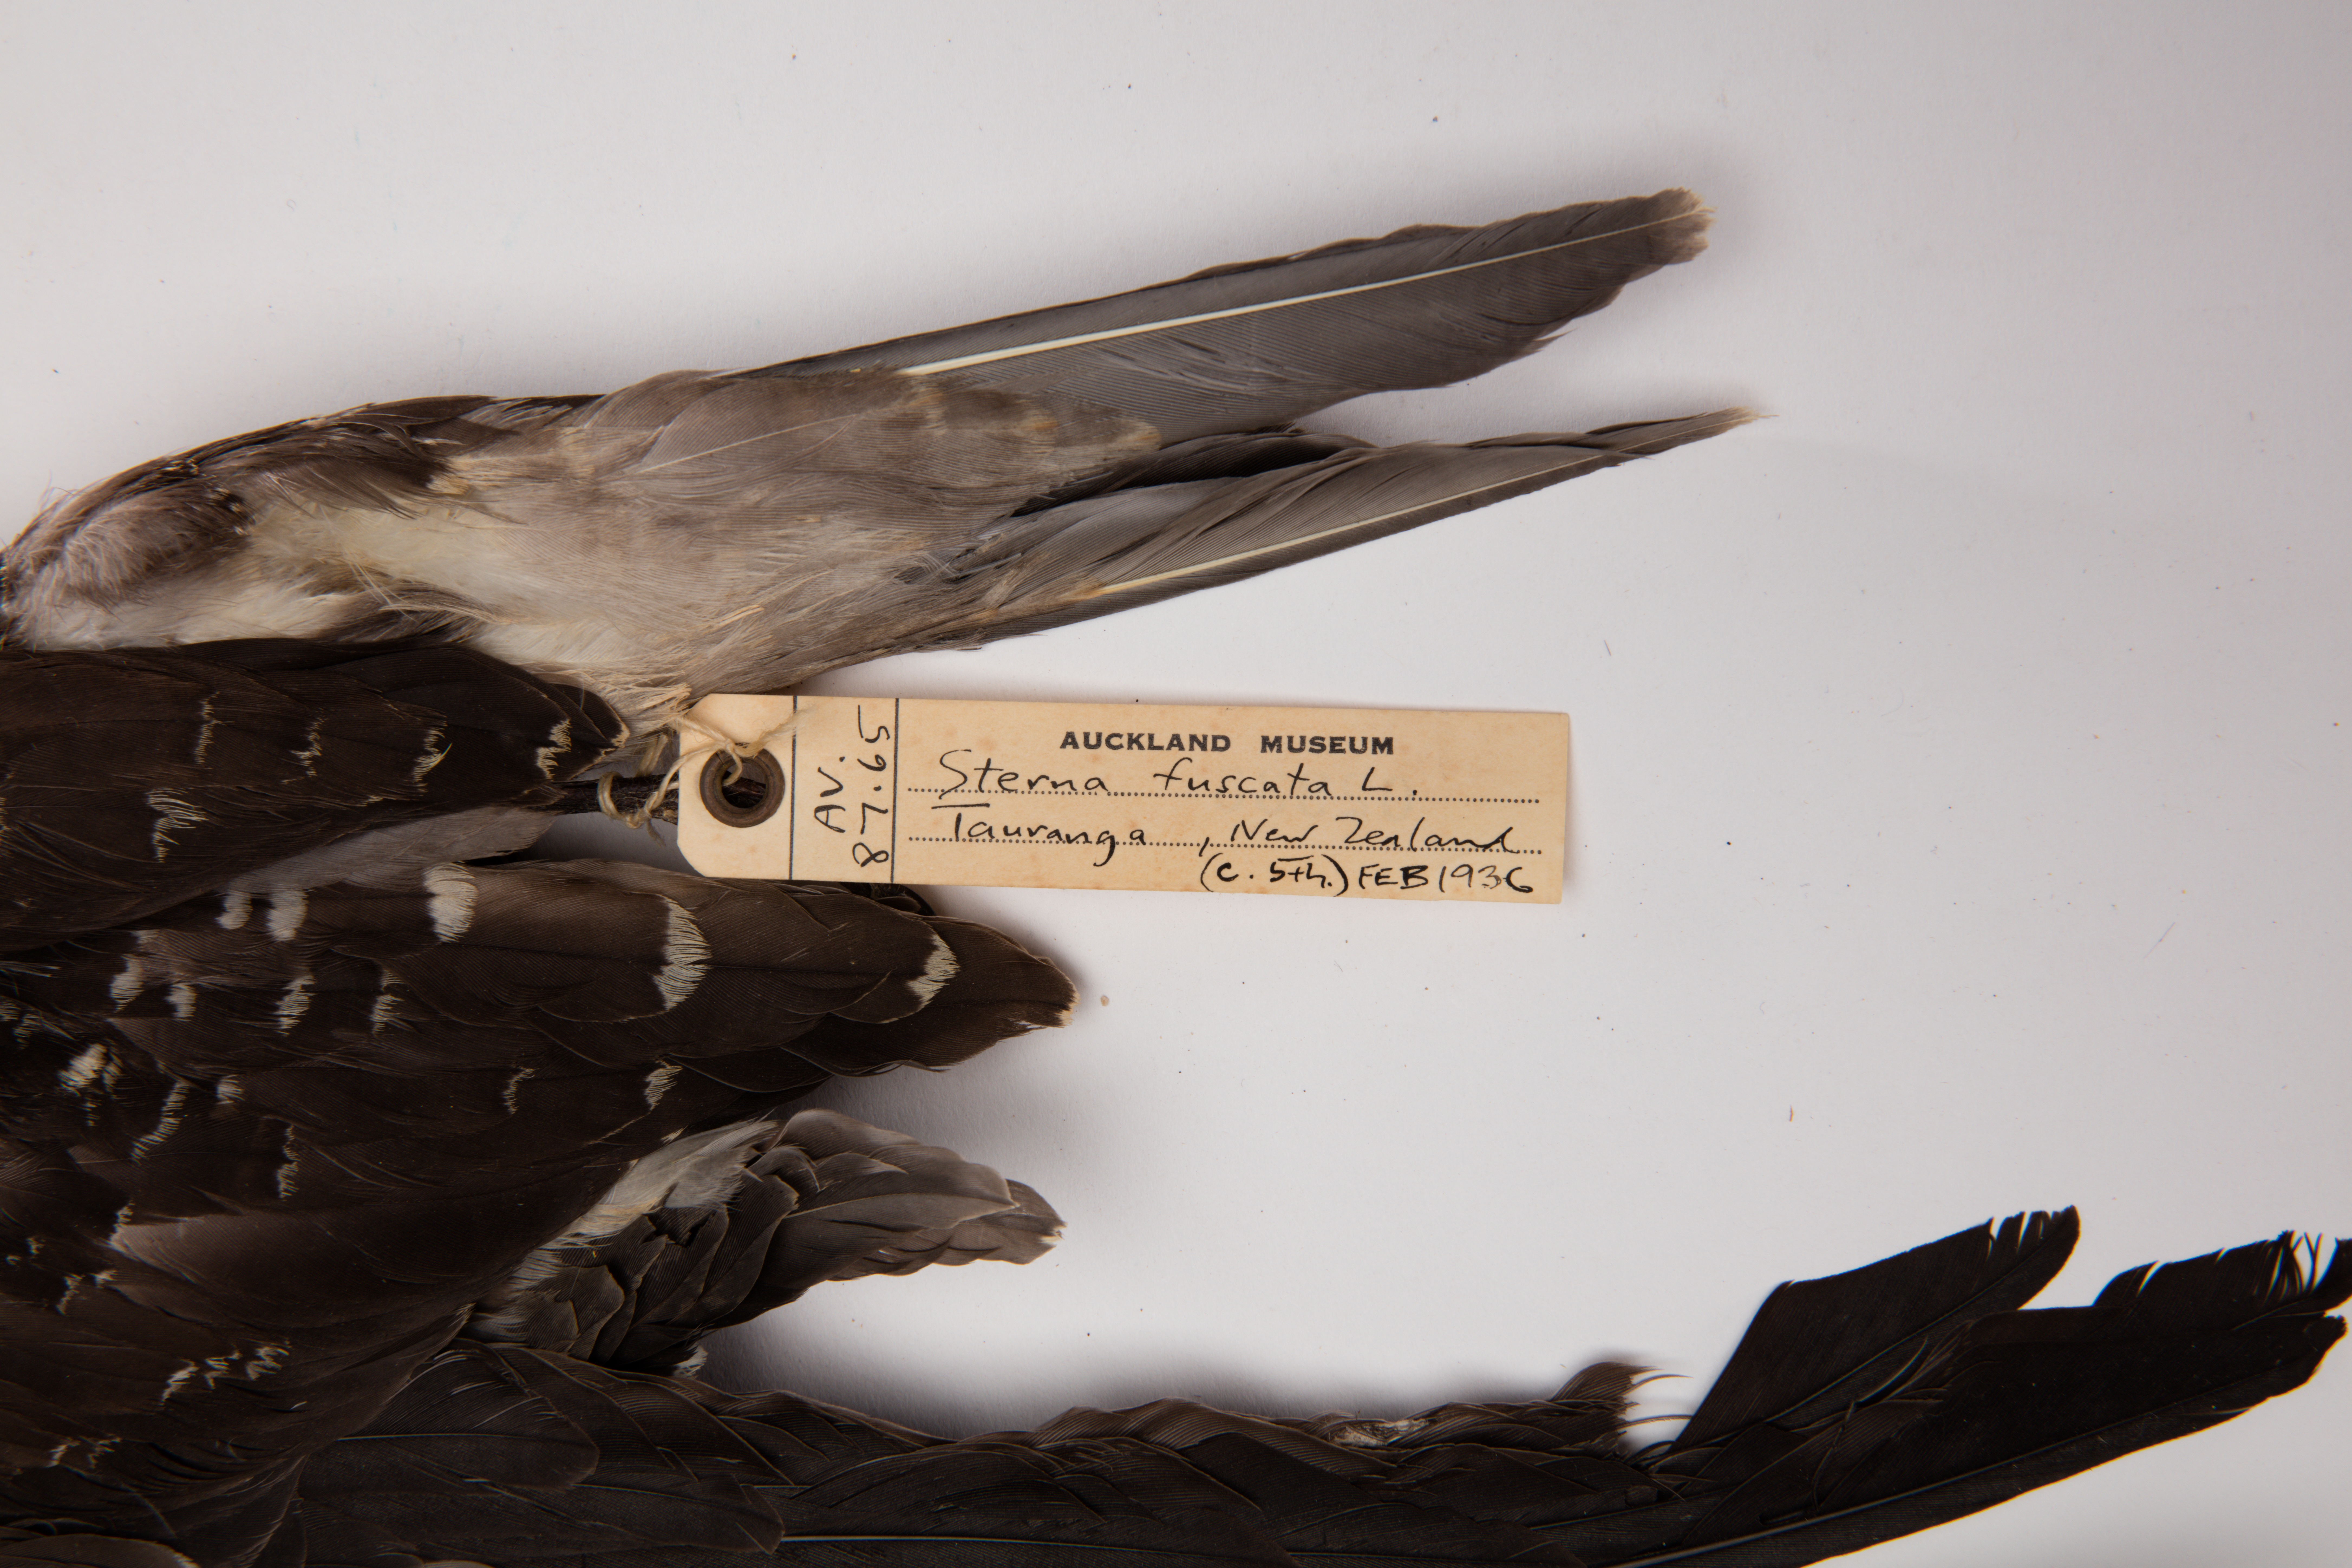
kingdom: Animalia
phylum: Chordata
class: Aves
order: Charadriiformes
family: Laridae
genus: Onychoprion
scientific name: Onychoprion fuscatus
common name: Sooty tern
